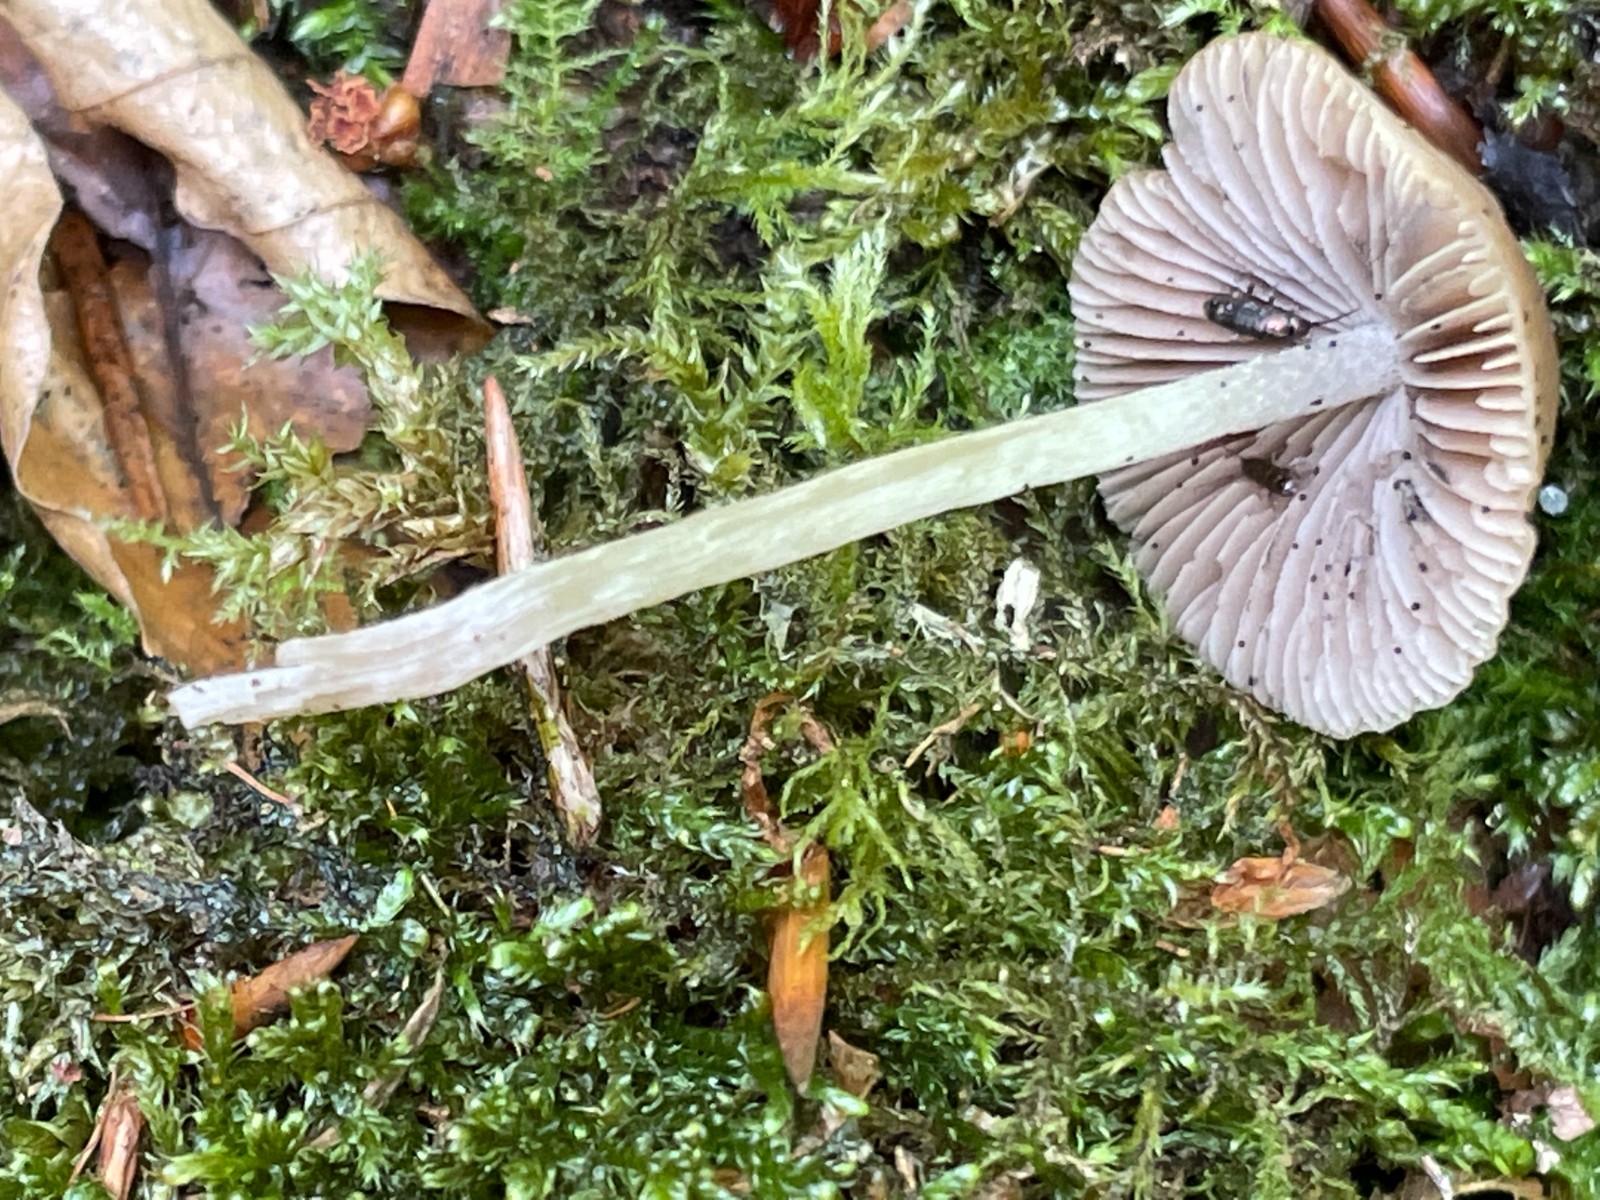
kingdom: Fungi
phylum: Basidiomycota
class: Agaricomycetes
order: Agaricales
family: Psathyrellaceae
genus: Psathyrella
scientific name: Psathyrella
